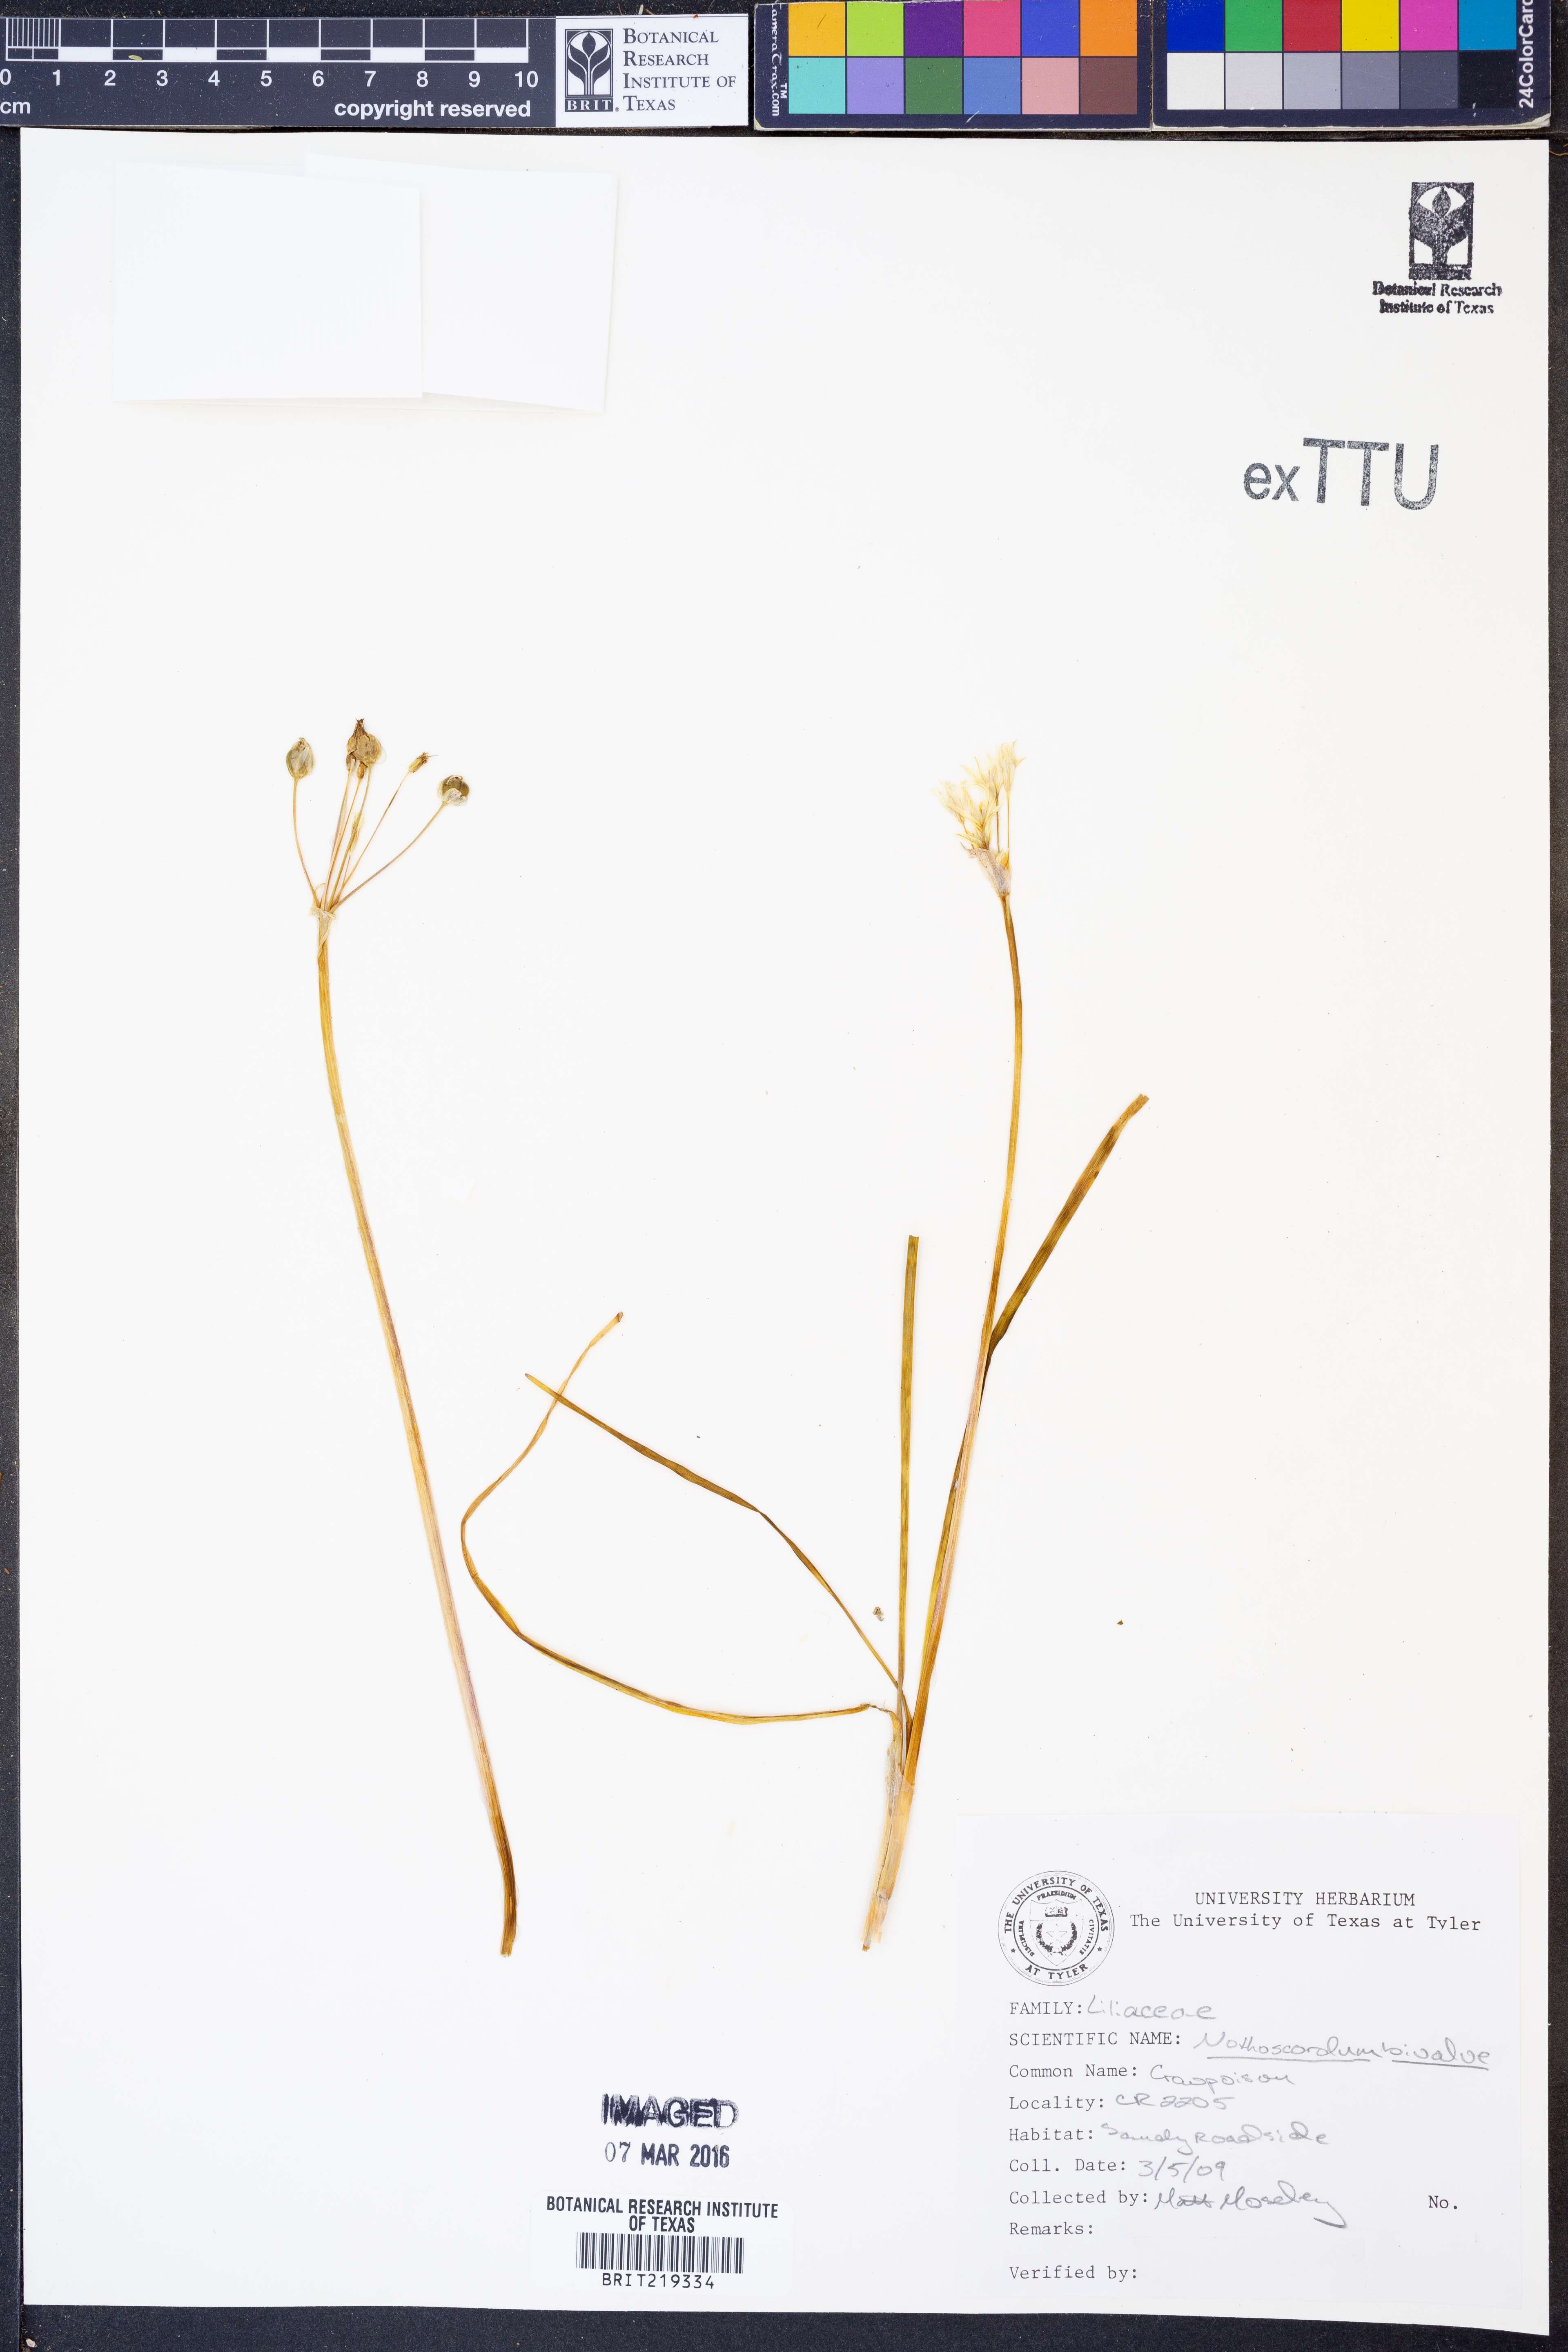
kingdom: Plantae
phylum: Tracheophyta
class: Liliopsida
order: Asparagales
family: Amaryllidaceae
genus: Nothoscordum
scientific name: Nothoscordum bivalve
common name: Crow-poison
